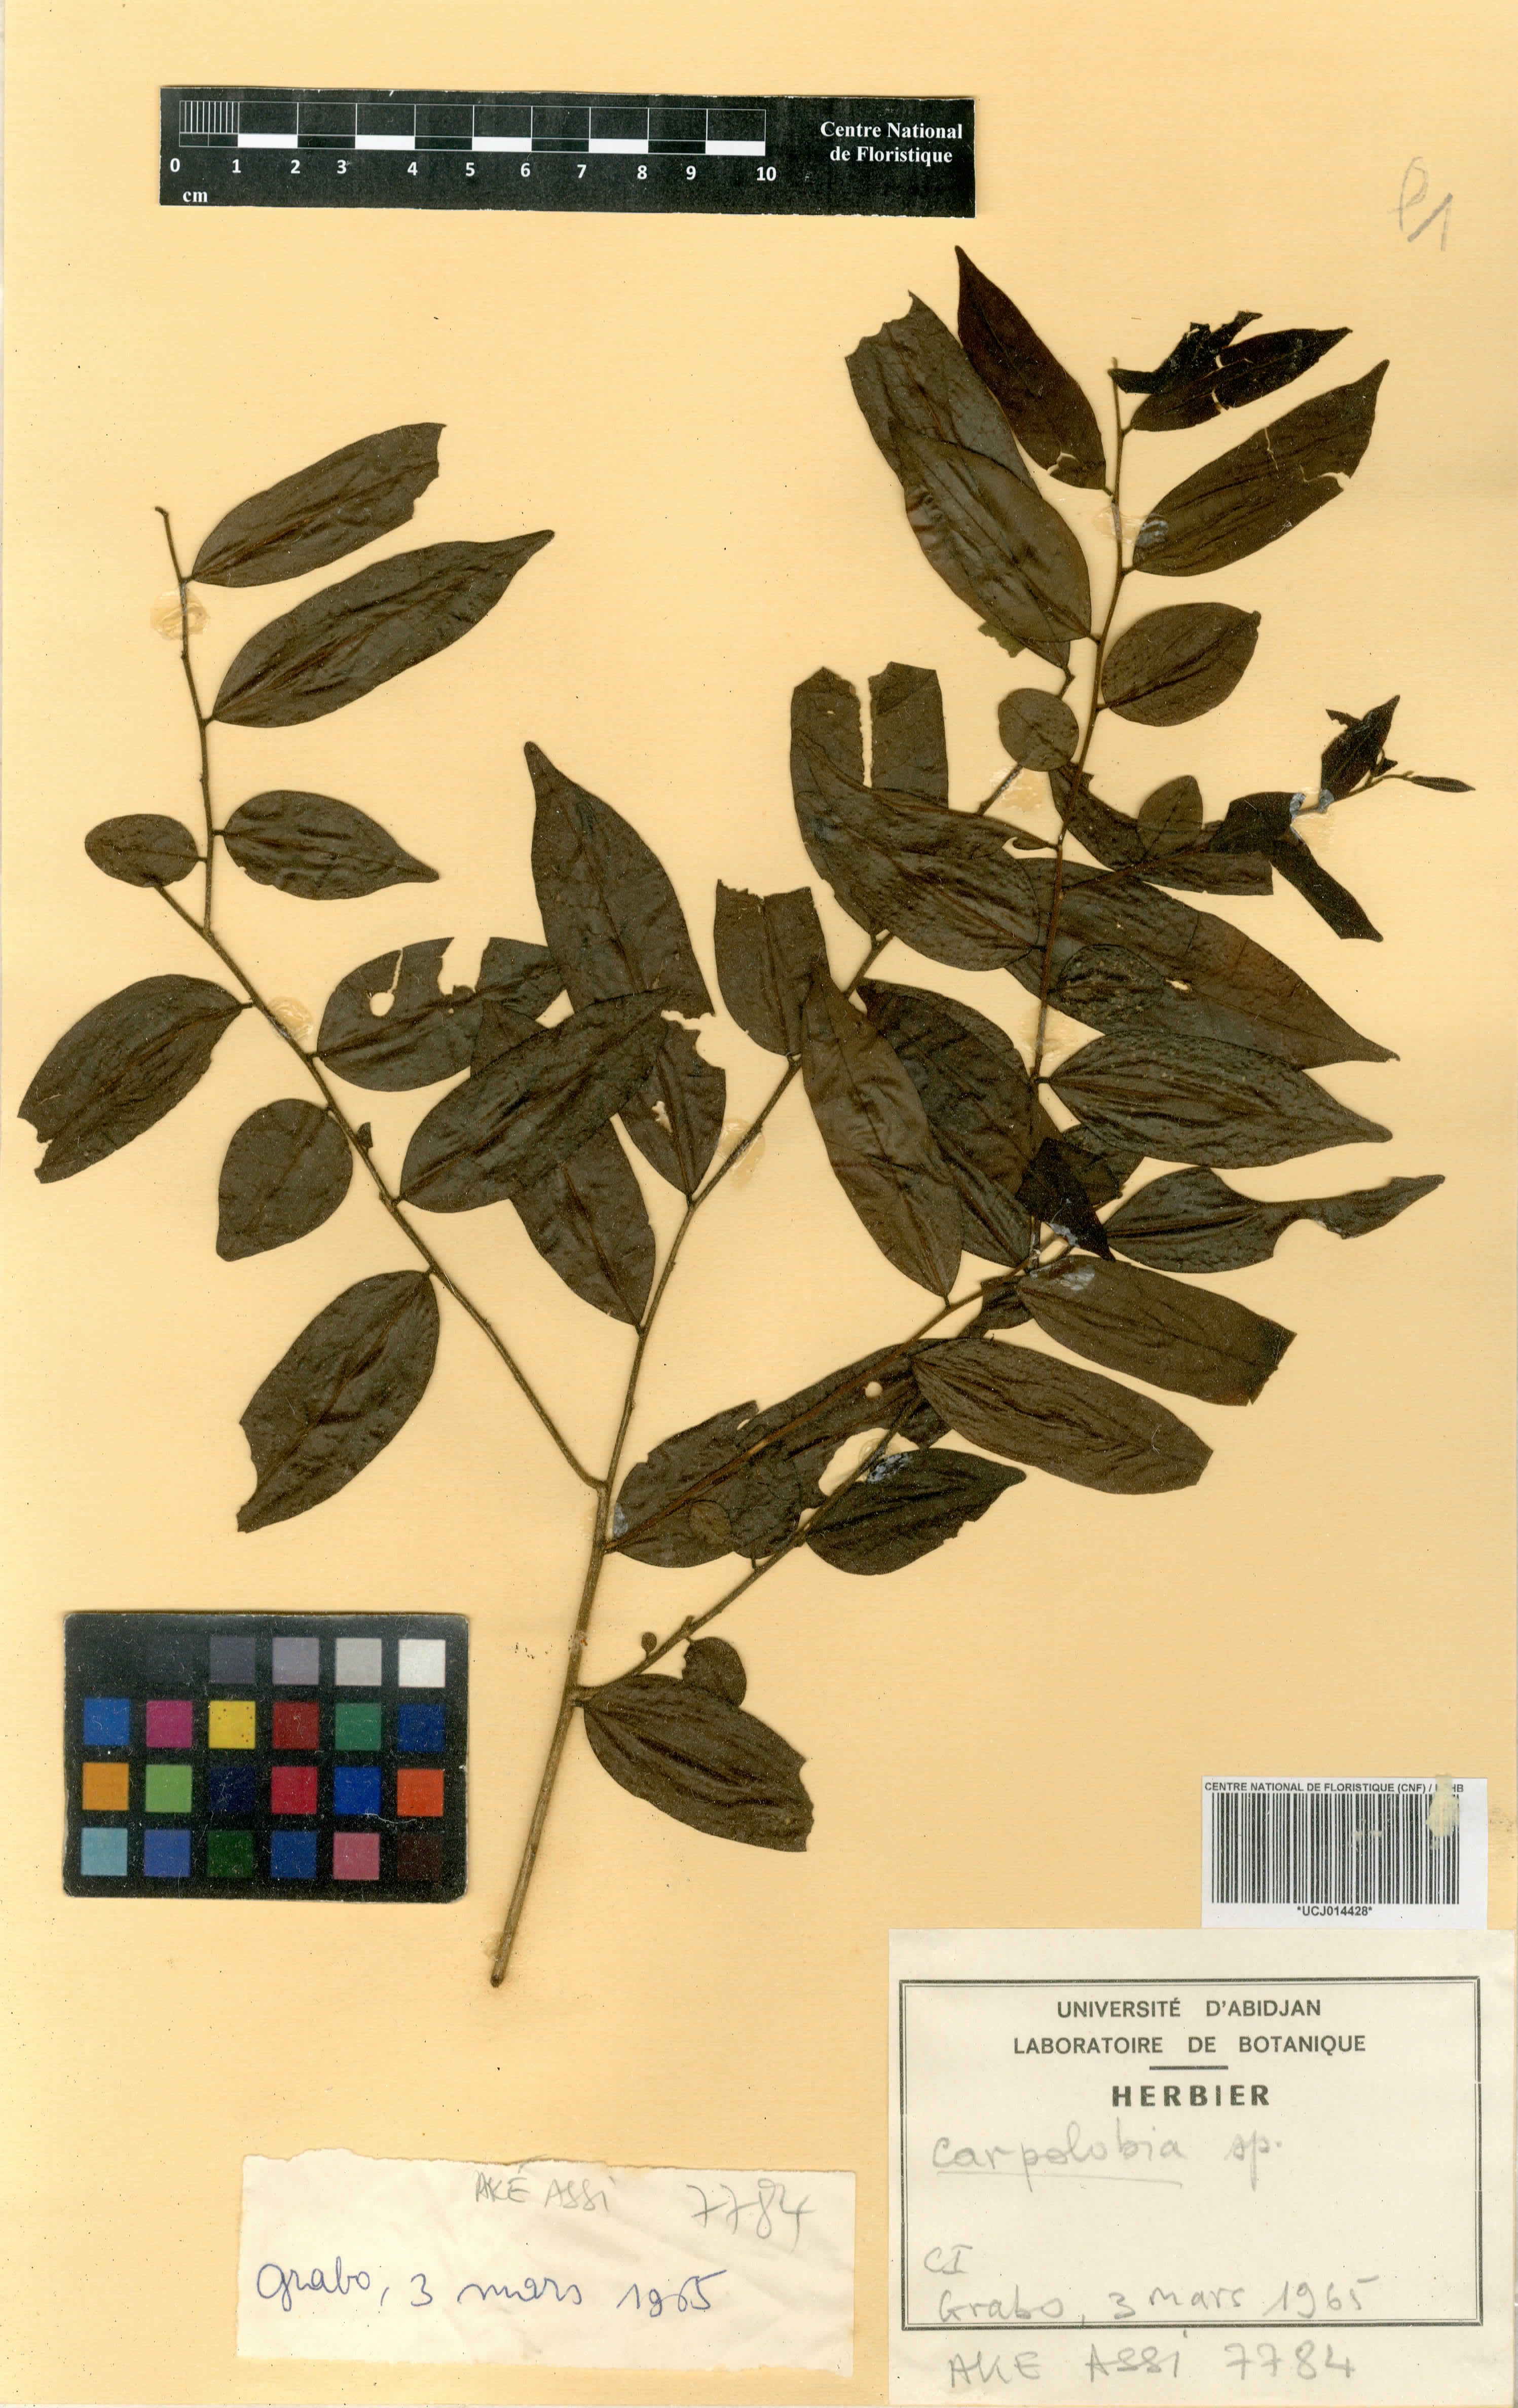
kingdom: Plantae
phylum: Tracheophyta
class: Magnoliopsida
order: Fabales
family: Polygalaceae
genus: Carpolobia
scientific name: Carpolobia
